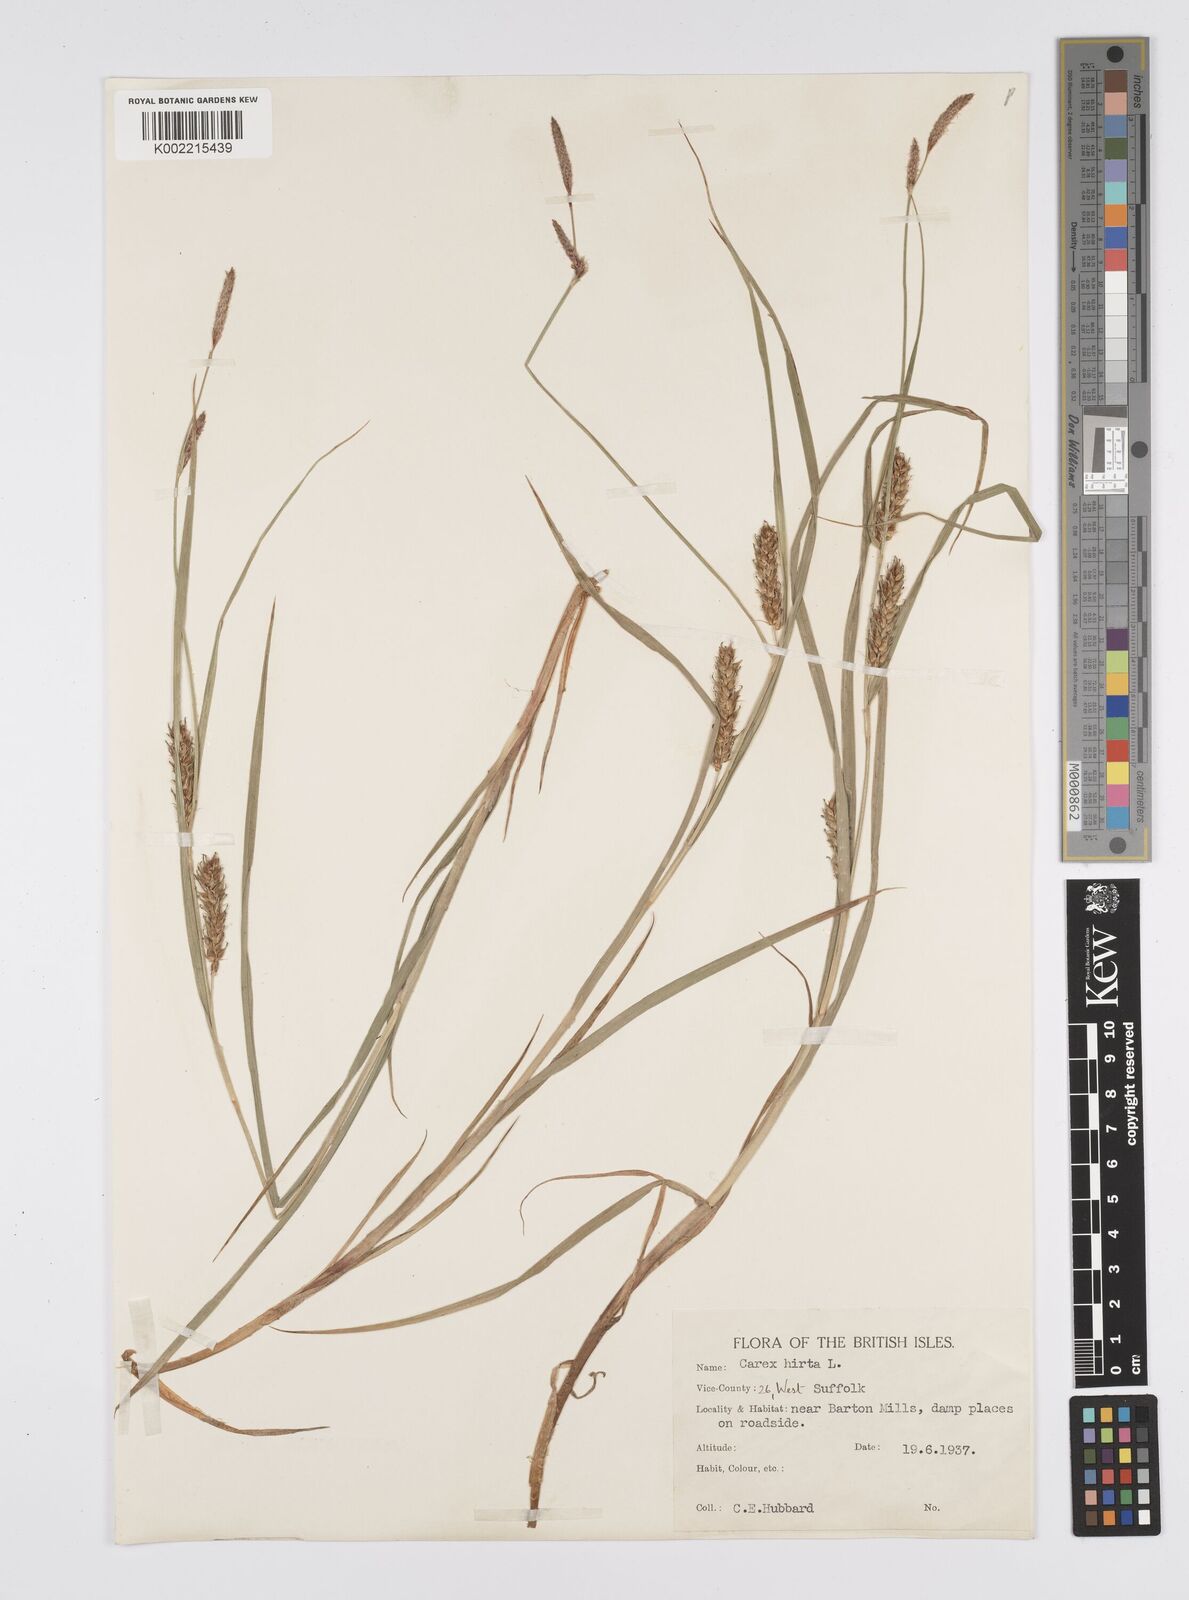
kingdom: Plantae
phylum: Tracheophyta
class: Liliopsida
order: Poales
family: Cyperaceae
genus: Carex
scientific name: Carex hirta
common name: Hairy sedge
